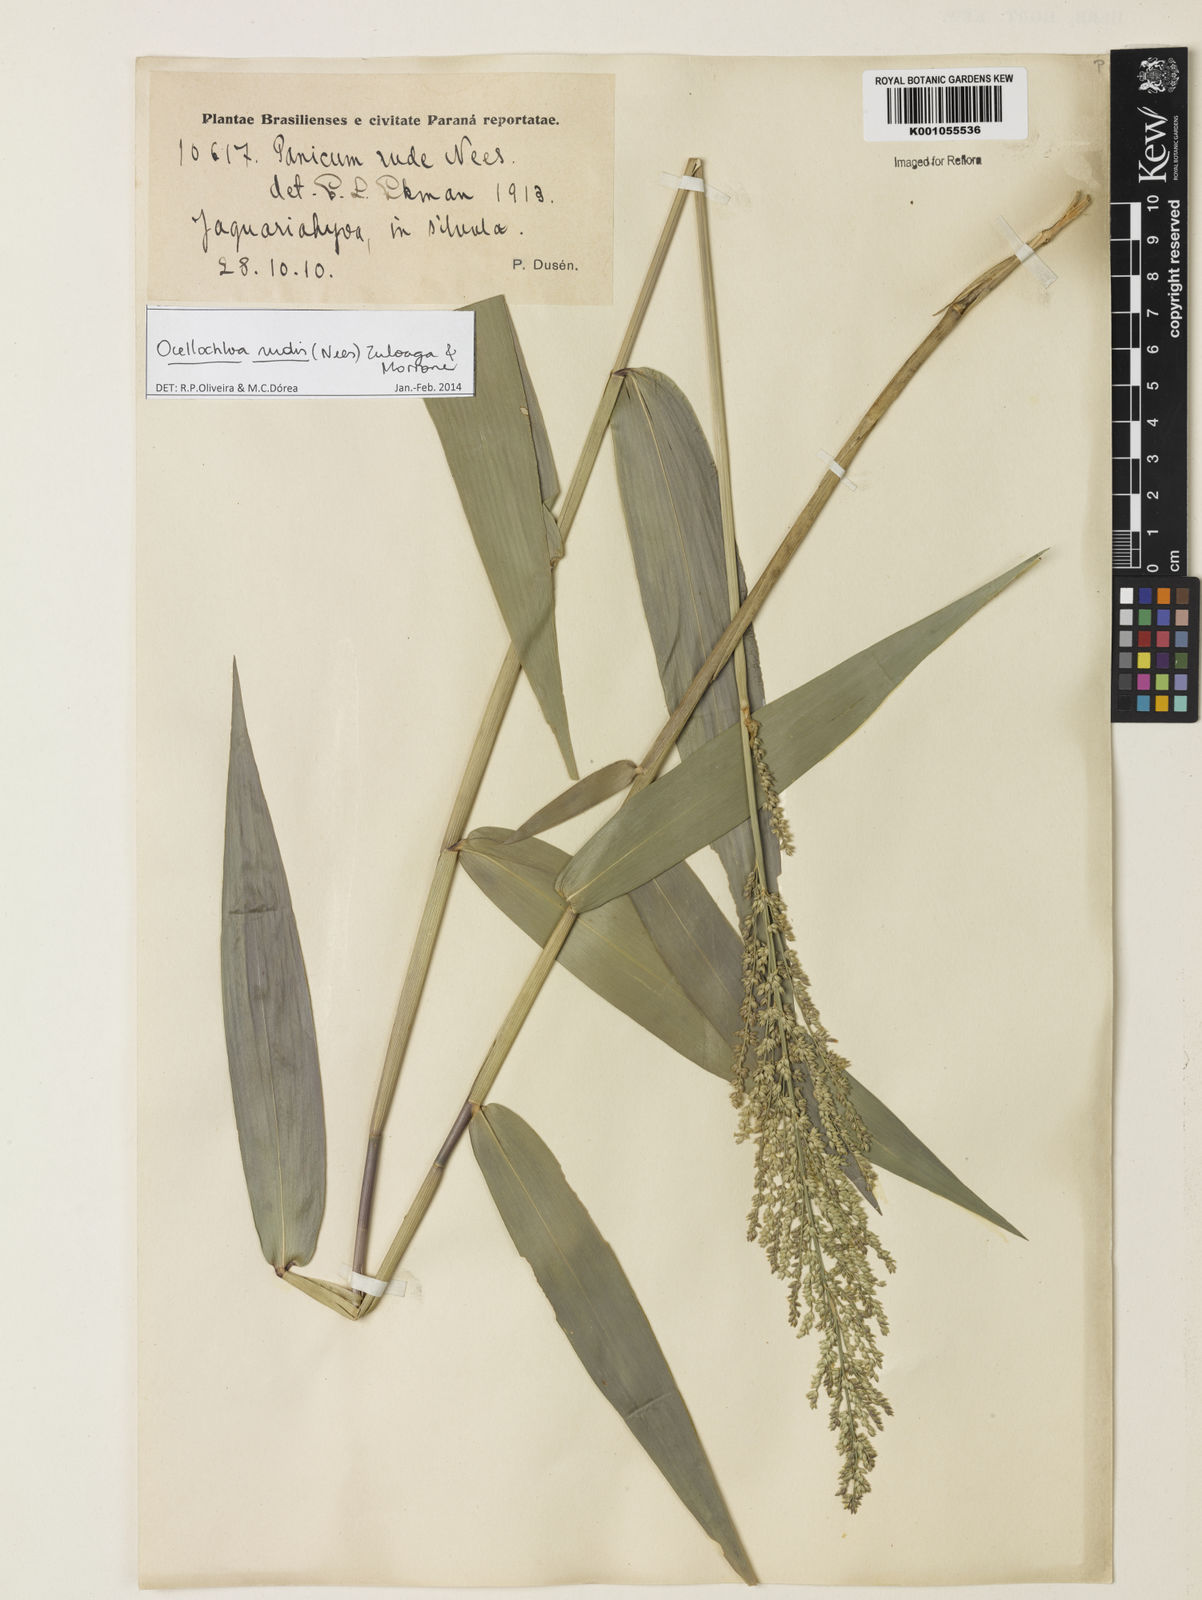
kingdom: Plantae
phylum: Tracheophyta
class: Liliopsida
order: Poales
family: Poaceae
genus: Ocellochloa
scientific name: Ocellochloa rudis
